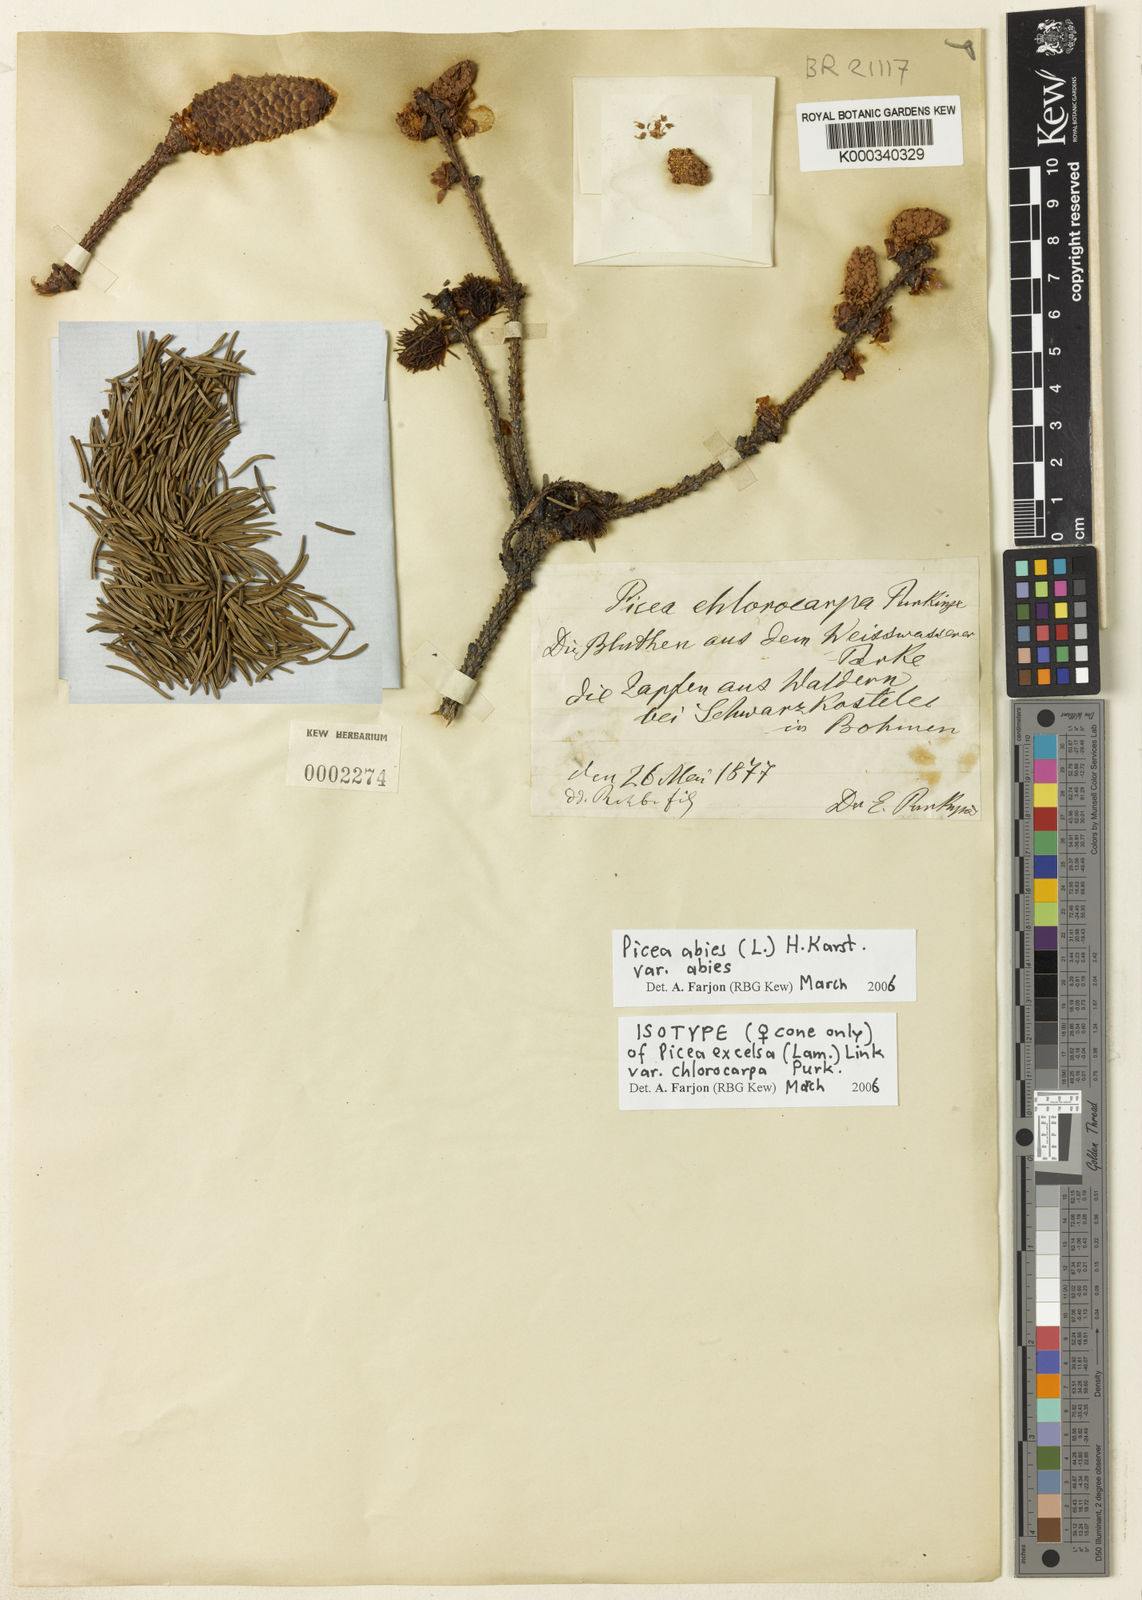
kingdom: Plantae
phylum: Tracheophyta
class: Pinopsida
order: Pinales
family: Pinaceae
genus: Picea
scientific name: Picea abies
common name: Norway spruce
